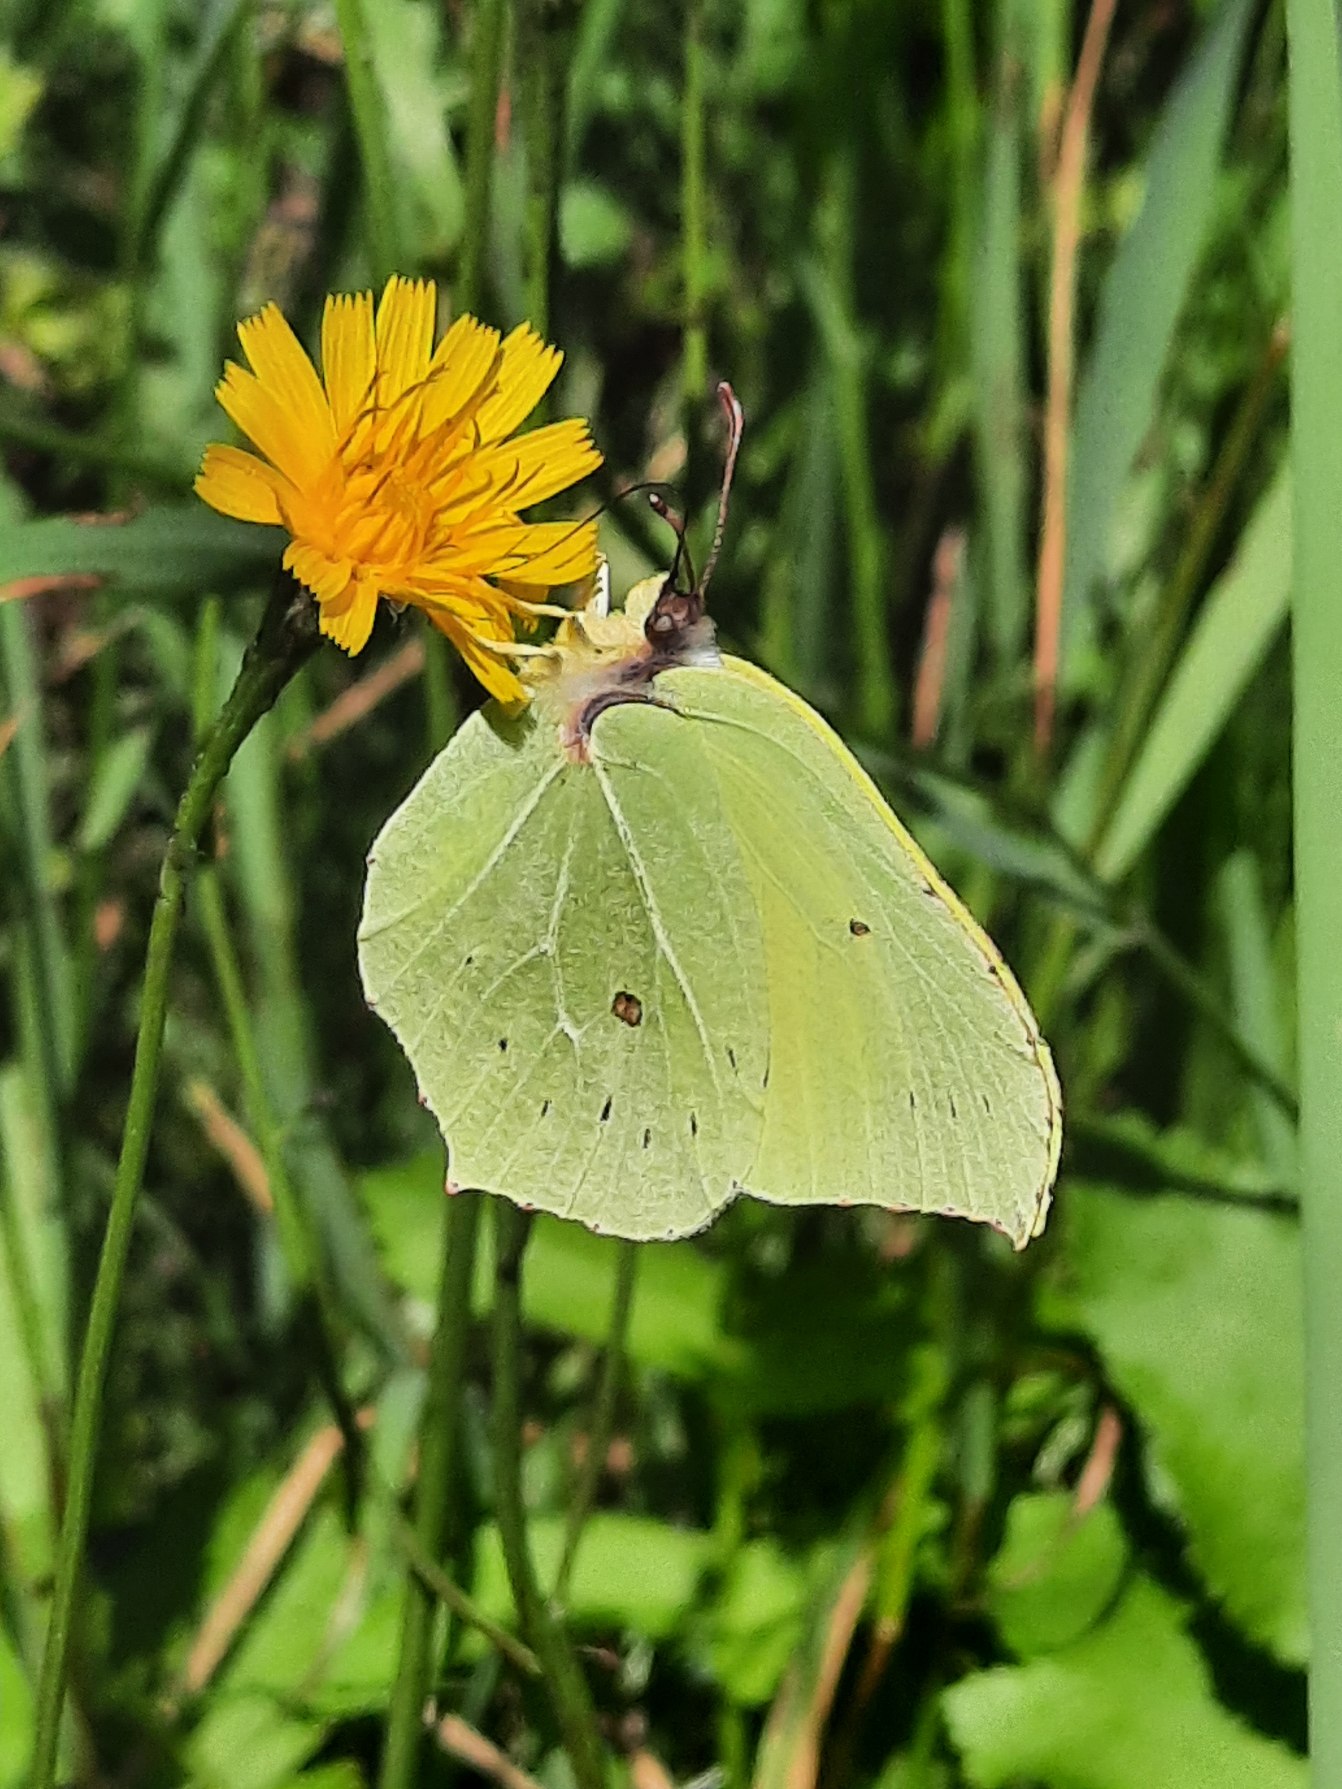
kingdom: Animalia
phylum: Arthropoda
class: Insecta
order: Lepidoptera
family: Pieridae
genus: Gonepteryx
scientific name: Gonepteryx rhamni
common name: Citronsommerfugl
